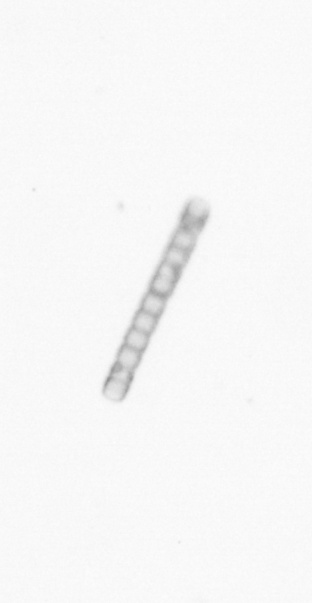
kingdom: Chromista
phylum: Ochrophyta
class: Bacillariophyceae
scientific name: Bacillariophyceae
